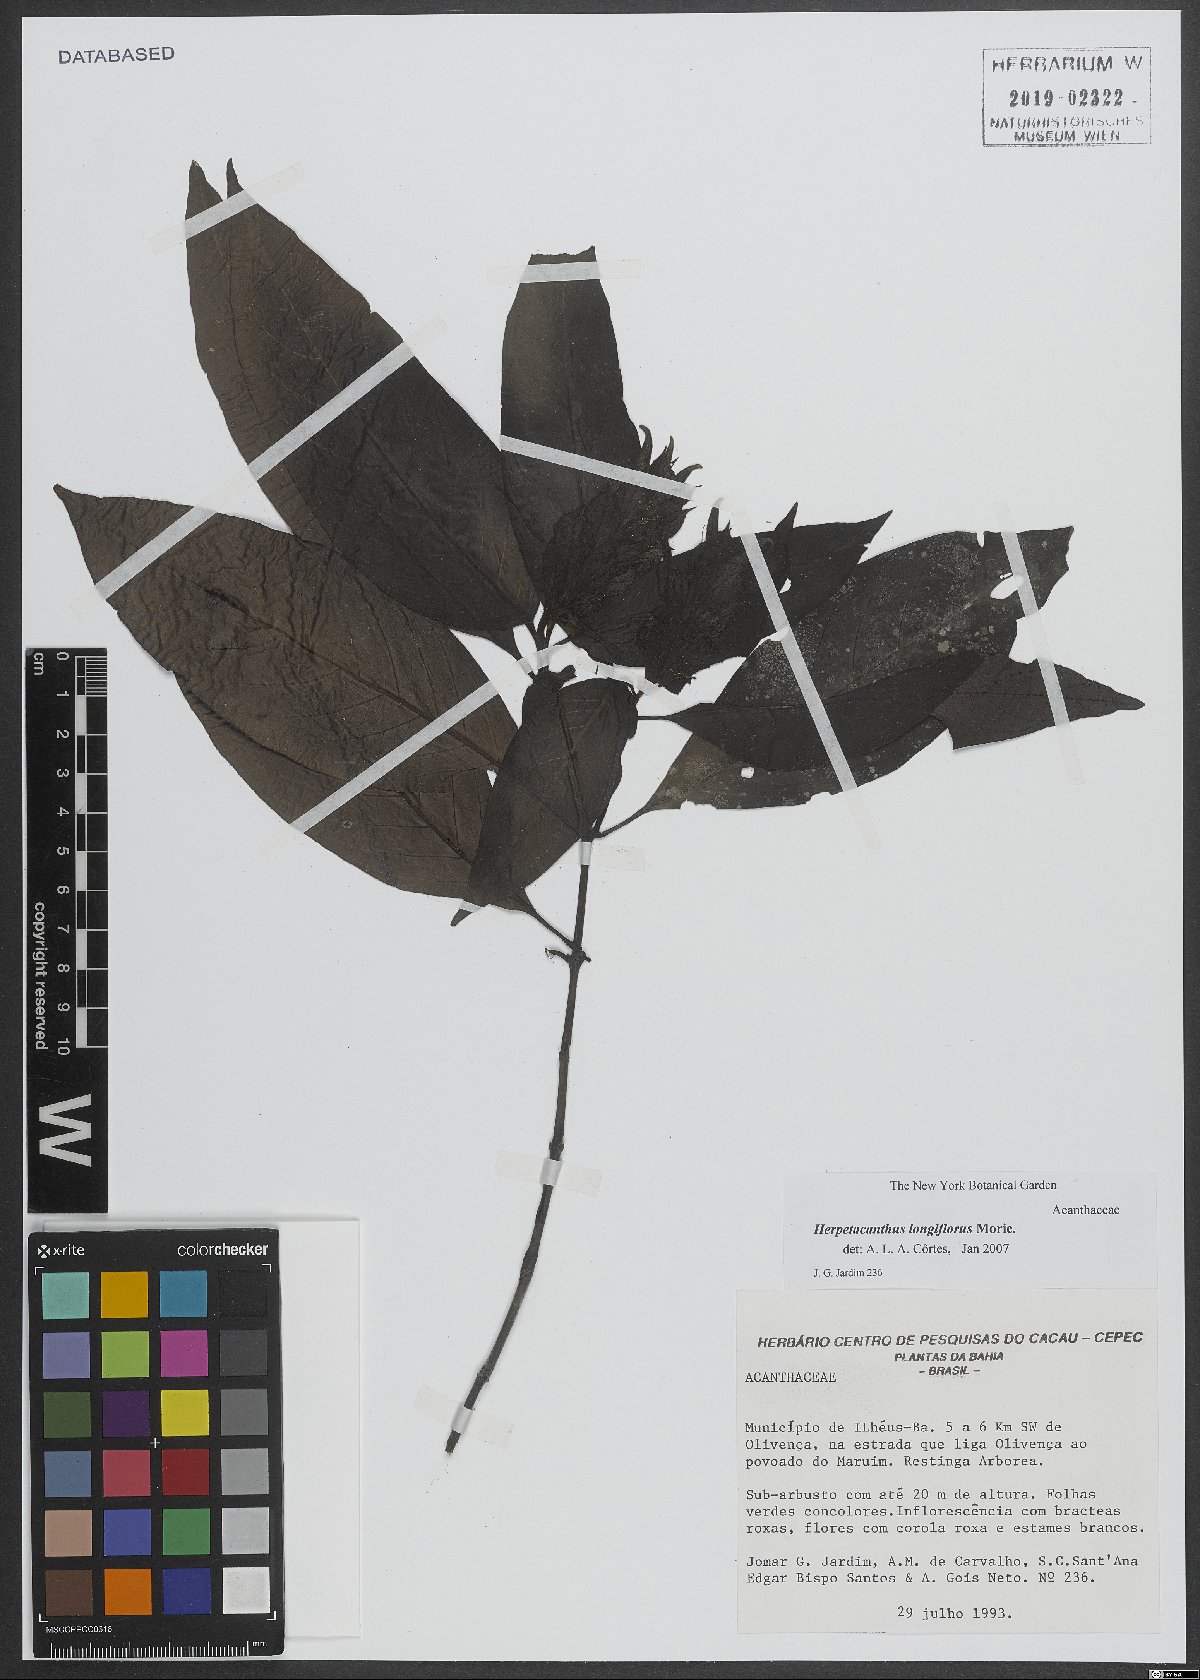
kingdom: Plantae
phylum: Tracheophyta
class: Magnoliopsida
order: Lamiales
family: Acanthaceae
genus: Herpetacanthus
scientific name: Herpetacanthus longiflorus
